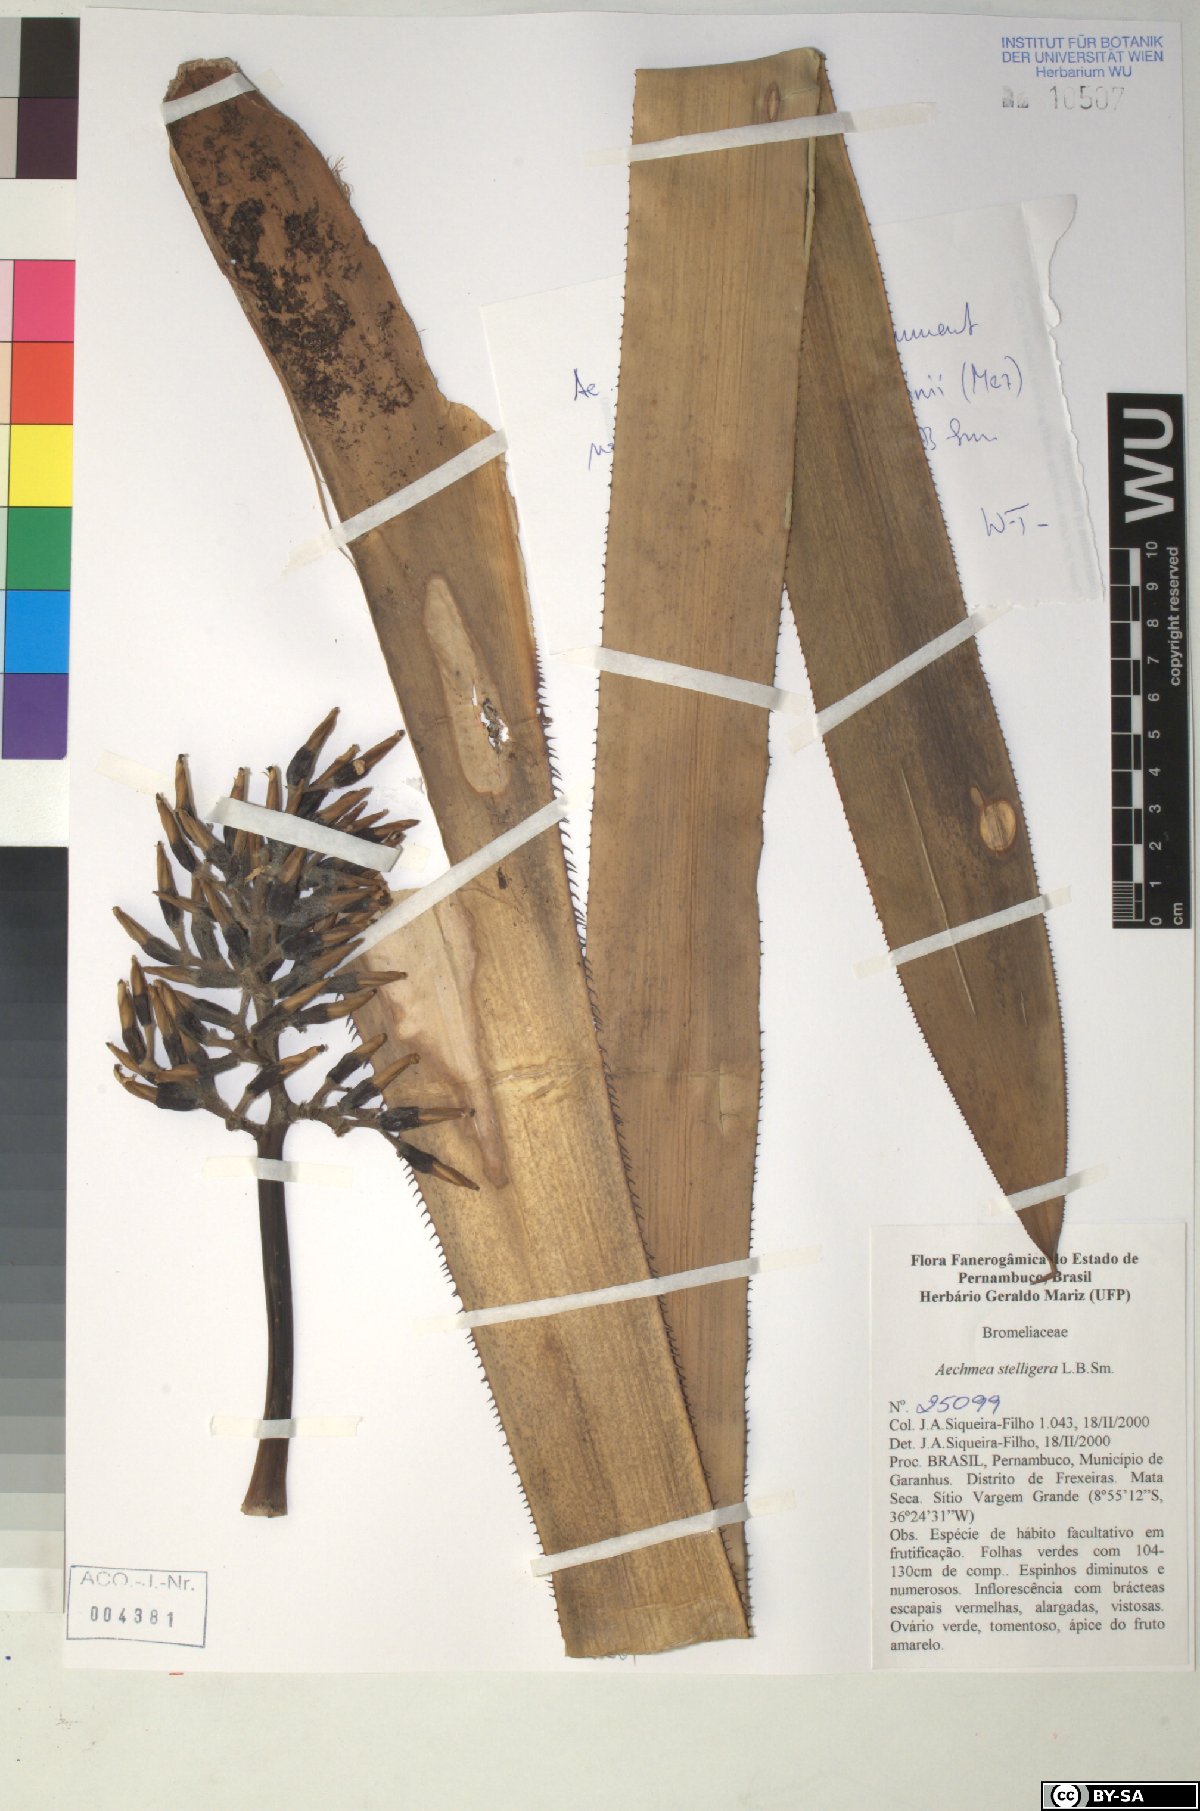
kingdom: Plantae
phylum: Tracheophyta
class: Liliopsida
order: Poales
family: Bromeliaceae
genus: Aechmea
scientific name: Aechmea stelligera
